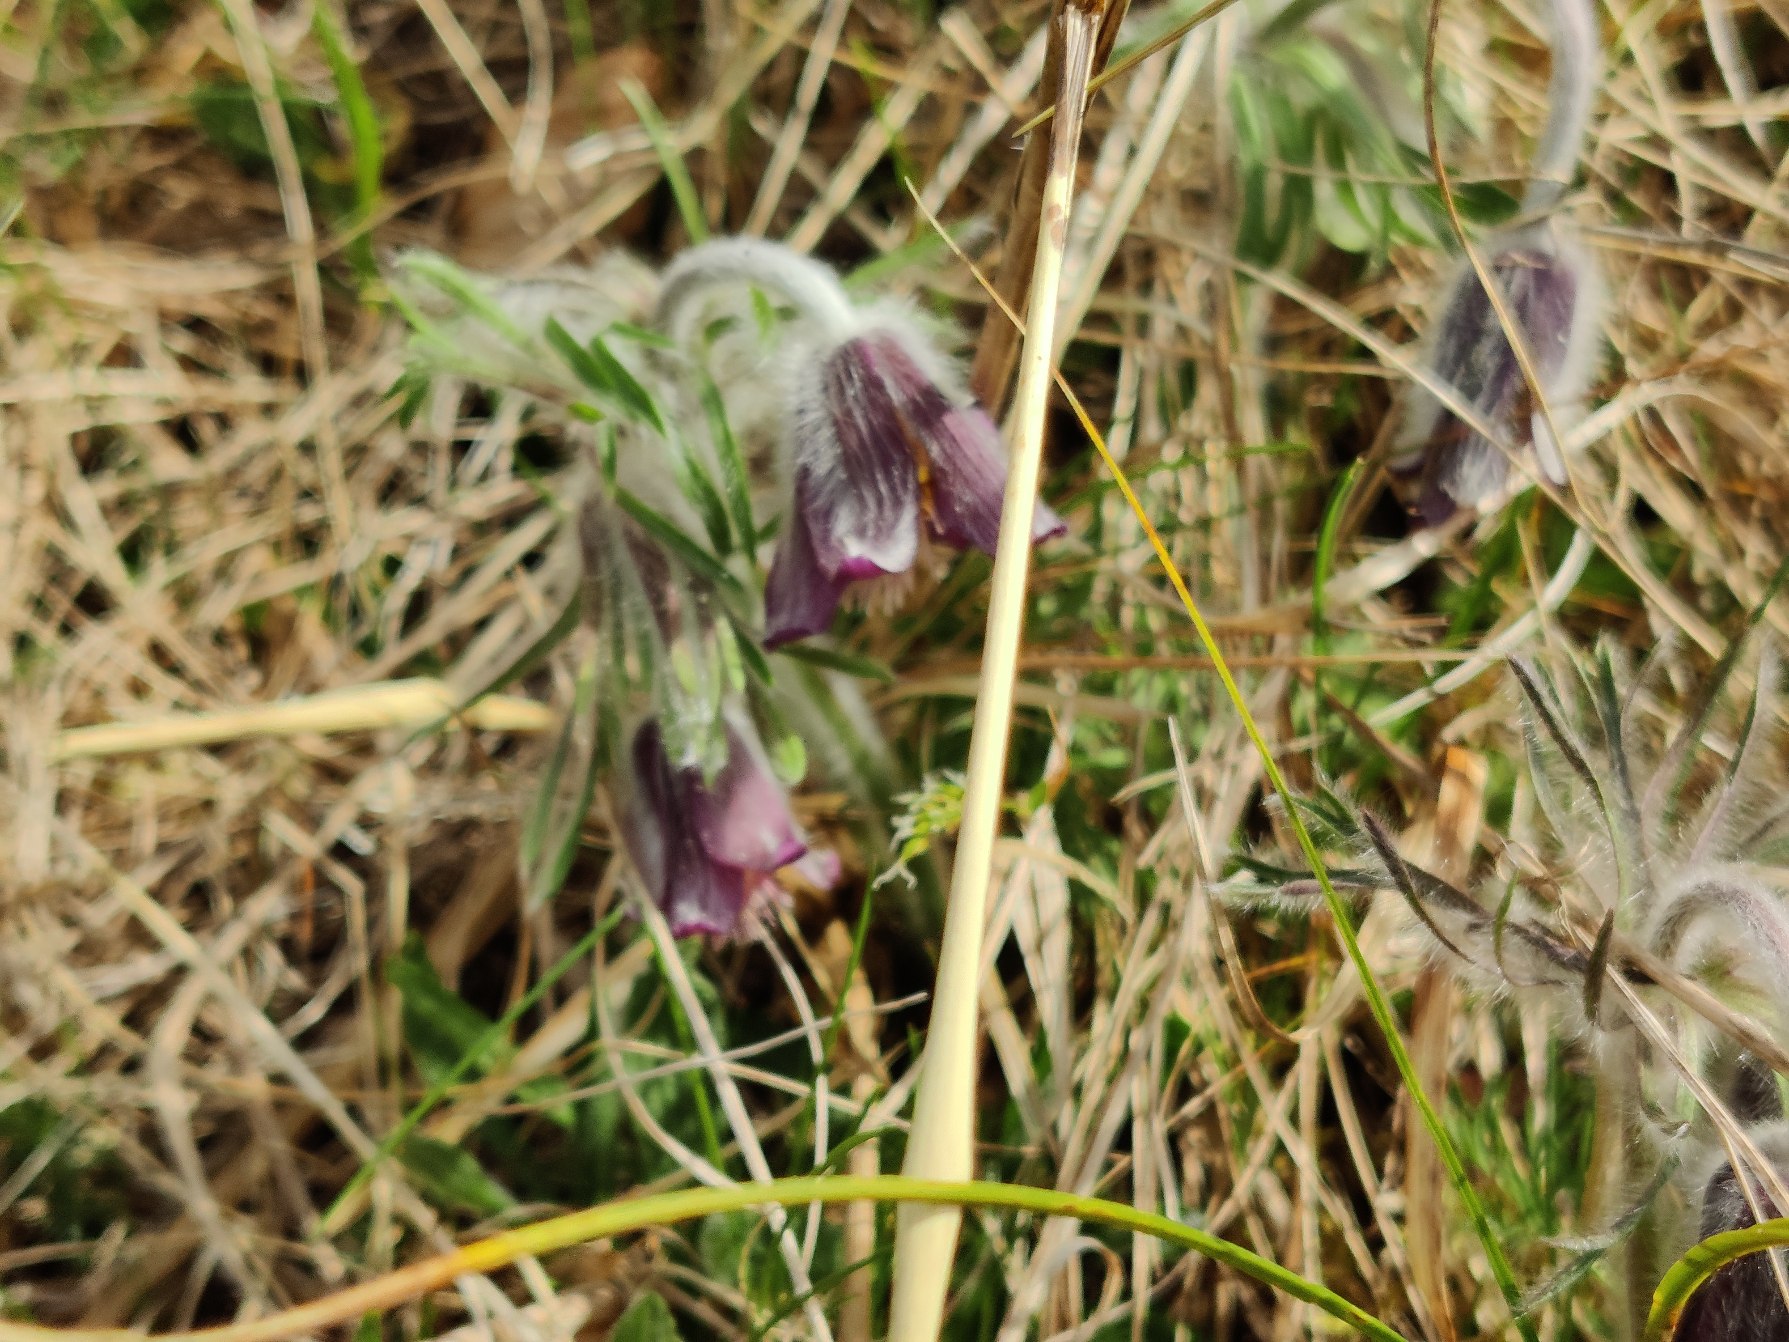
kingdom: Plantae
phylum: Tracheophyta
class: Magnoliopsida
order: Ranunculales
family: Ranunculaceae
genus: Pulsatilla
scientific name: Pulsatilla pratensis
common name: Nikkende kobjælde
